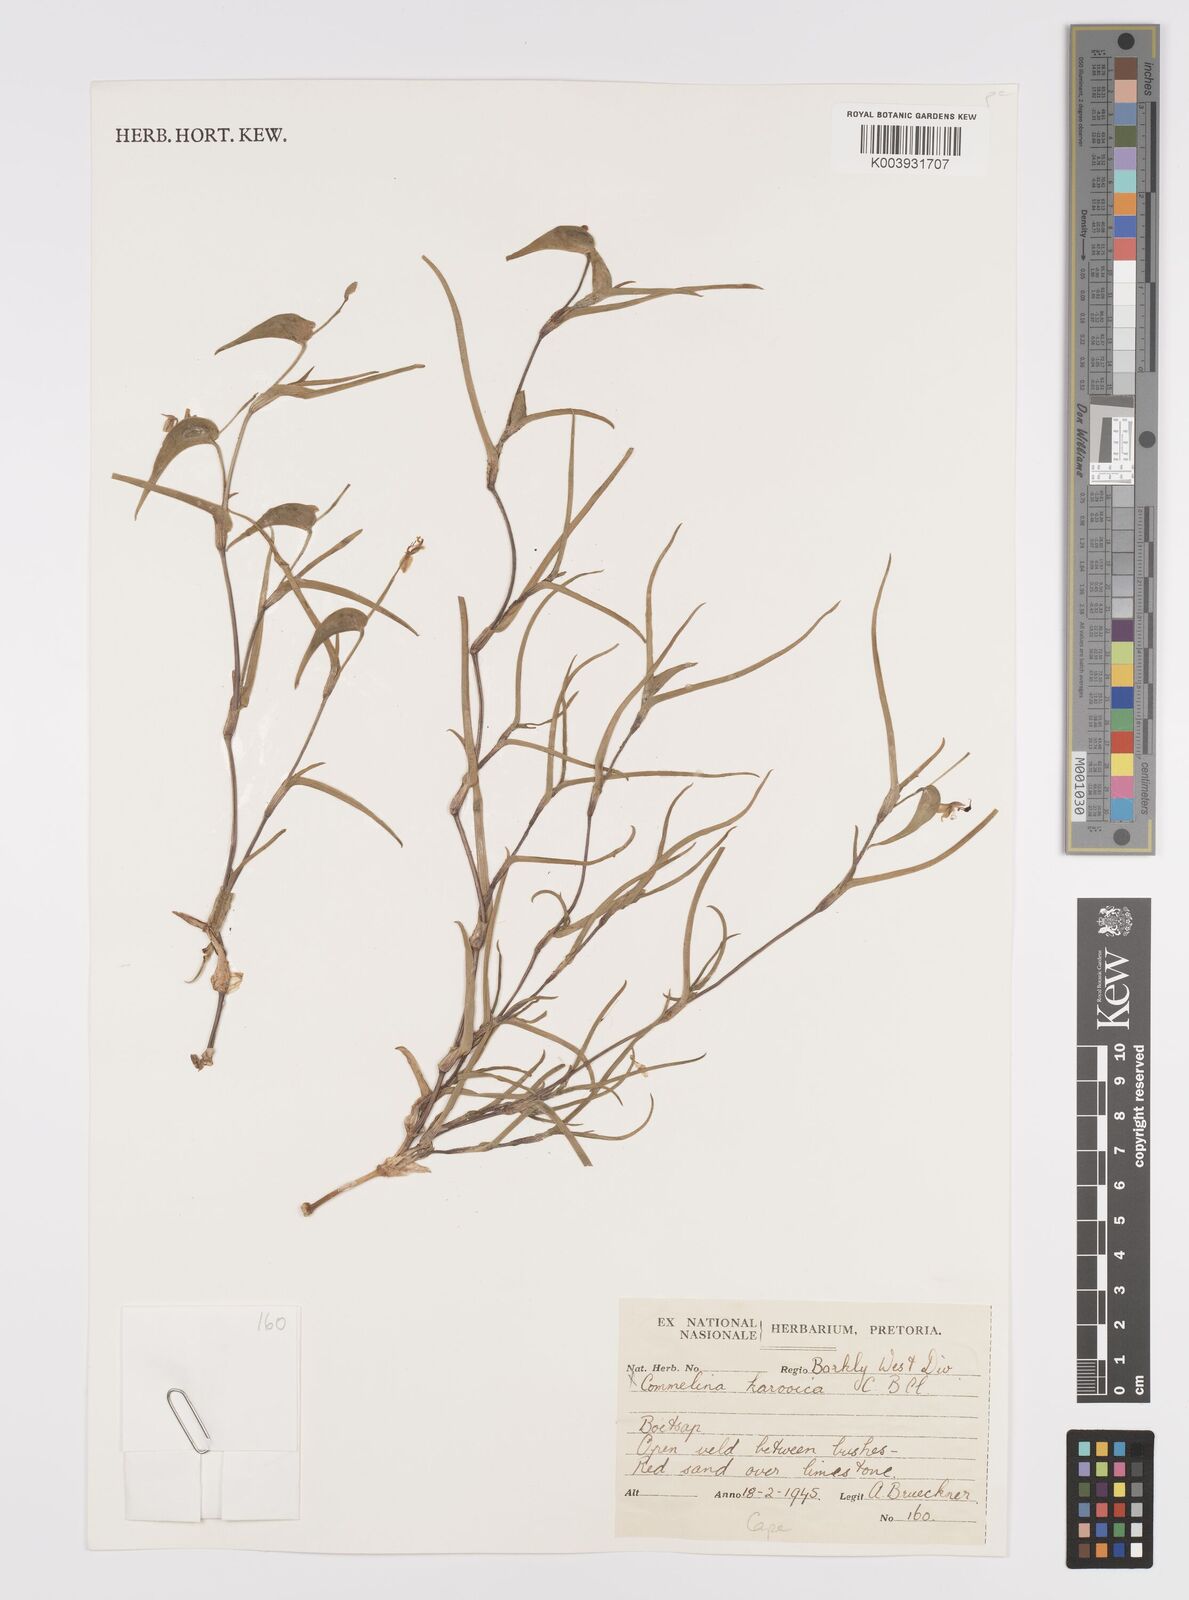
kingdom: Plantae
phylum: Tracheophyta
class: Liliopsida
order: Commelinales
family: Commelinaceae
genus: Commelina
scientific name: Commelina africana
